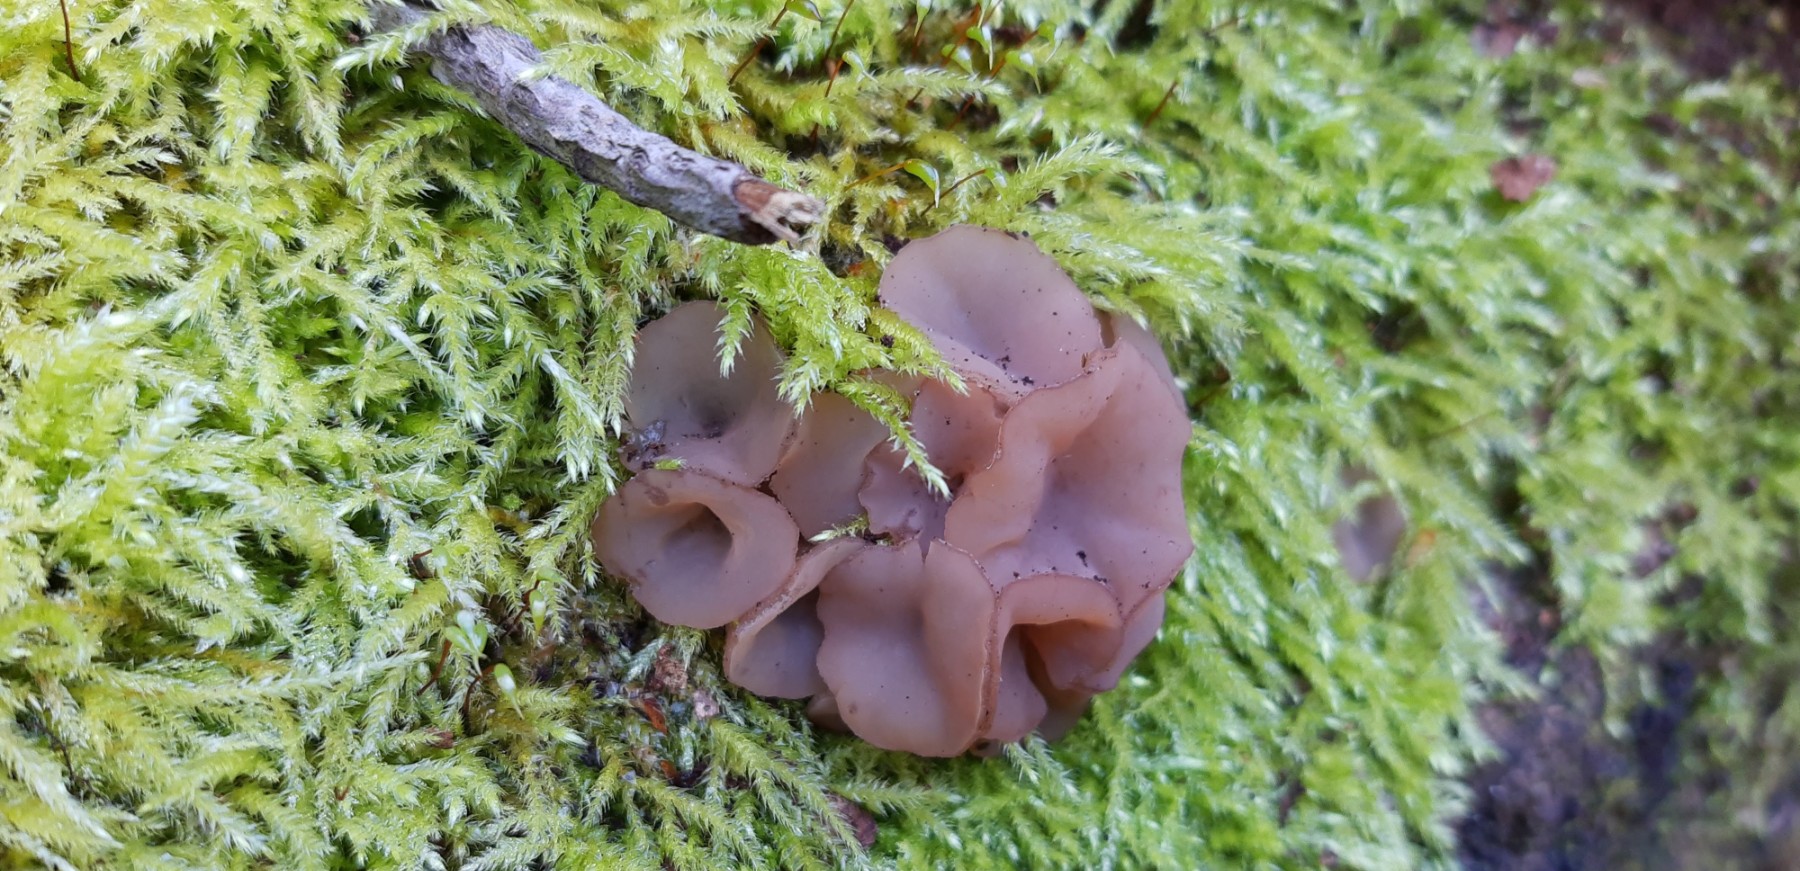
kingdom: Fungi
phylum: Ascomycota
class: Leotiomycetes
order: Helotiales
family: Gelatinodiscaceae
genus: Neobulgaria
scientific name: Neobulgaria pura
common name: bleg bævreskive
